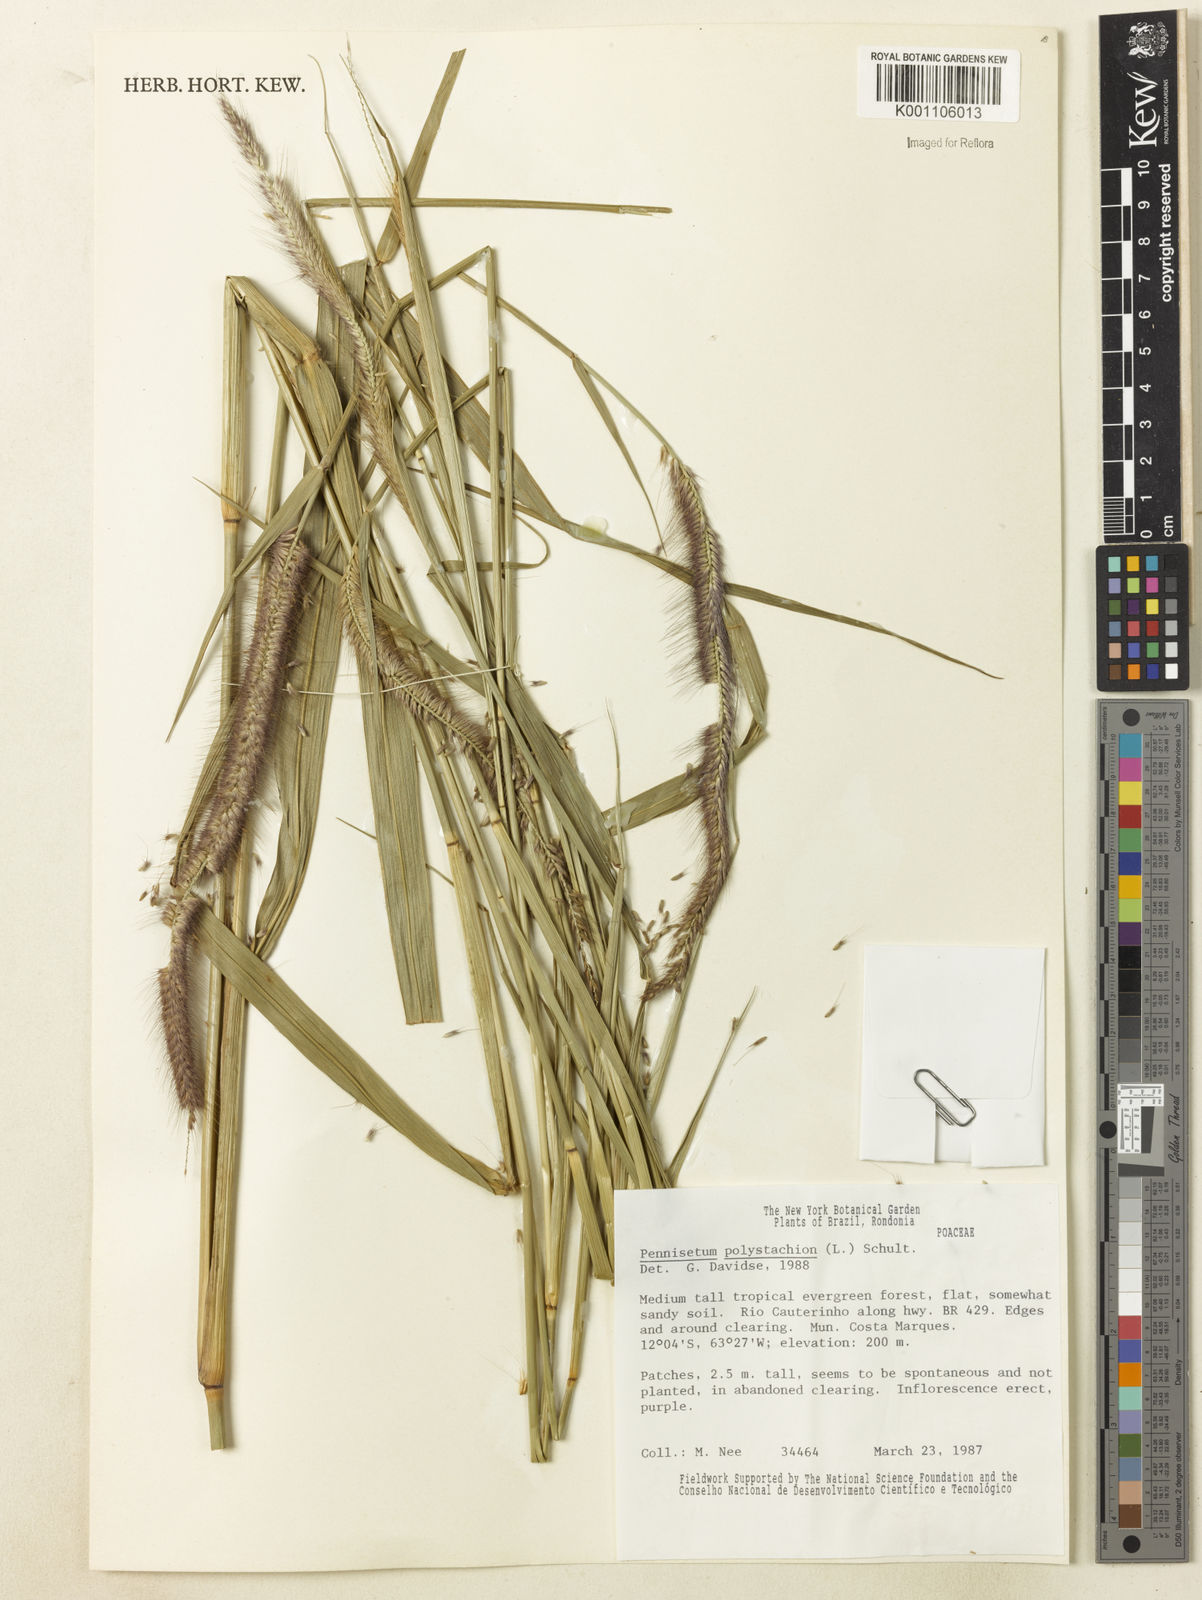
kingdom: Plantae
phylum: Tracheophyta
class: Liliopsida
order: Poales
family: Poaceae
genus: Setaria
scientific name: Setaria parviflora
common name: Knotroot bristle-grass
